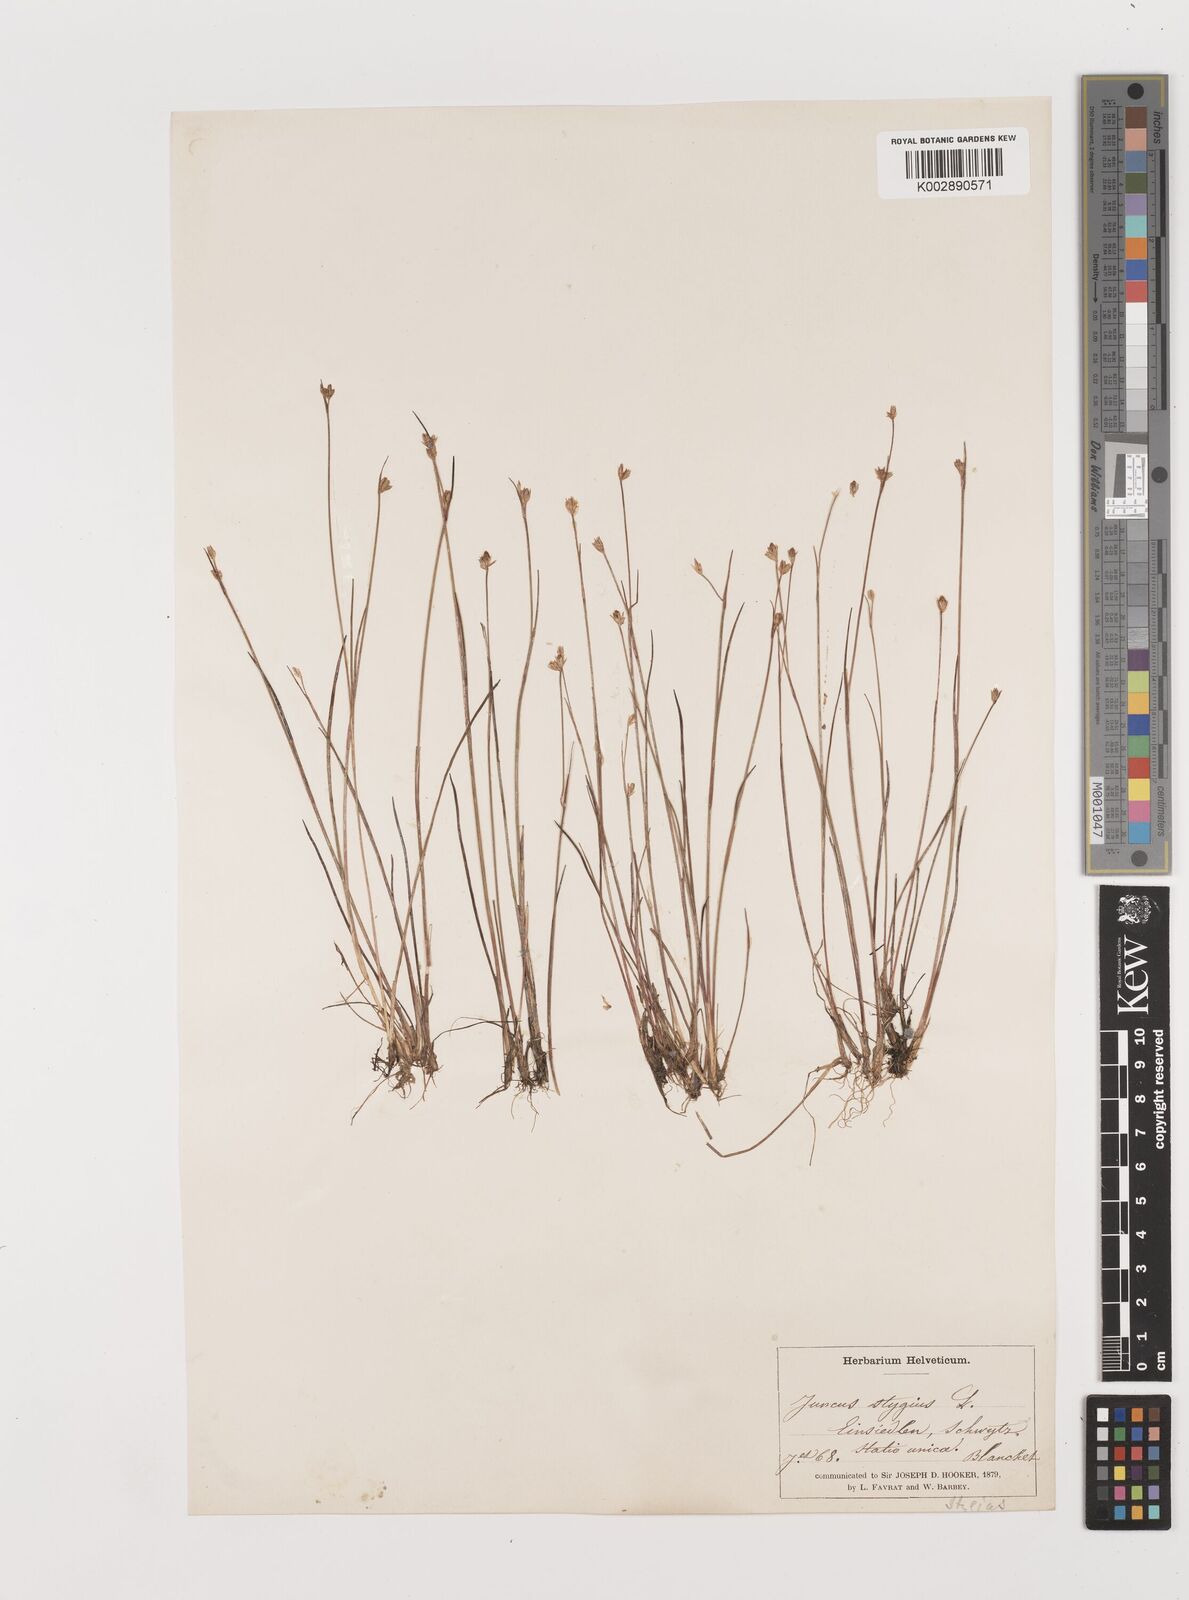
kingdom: Plantae
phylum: Tracheophyta
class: Liliopsida
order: Poales
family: Juncaceae
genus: Juncus
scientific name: Juncus stygius
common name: Bog rush
